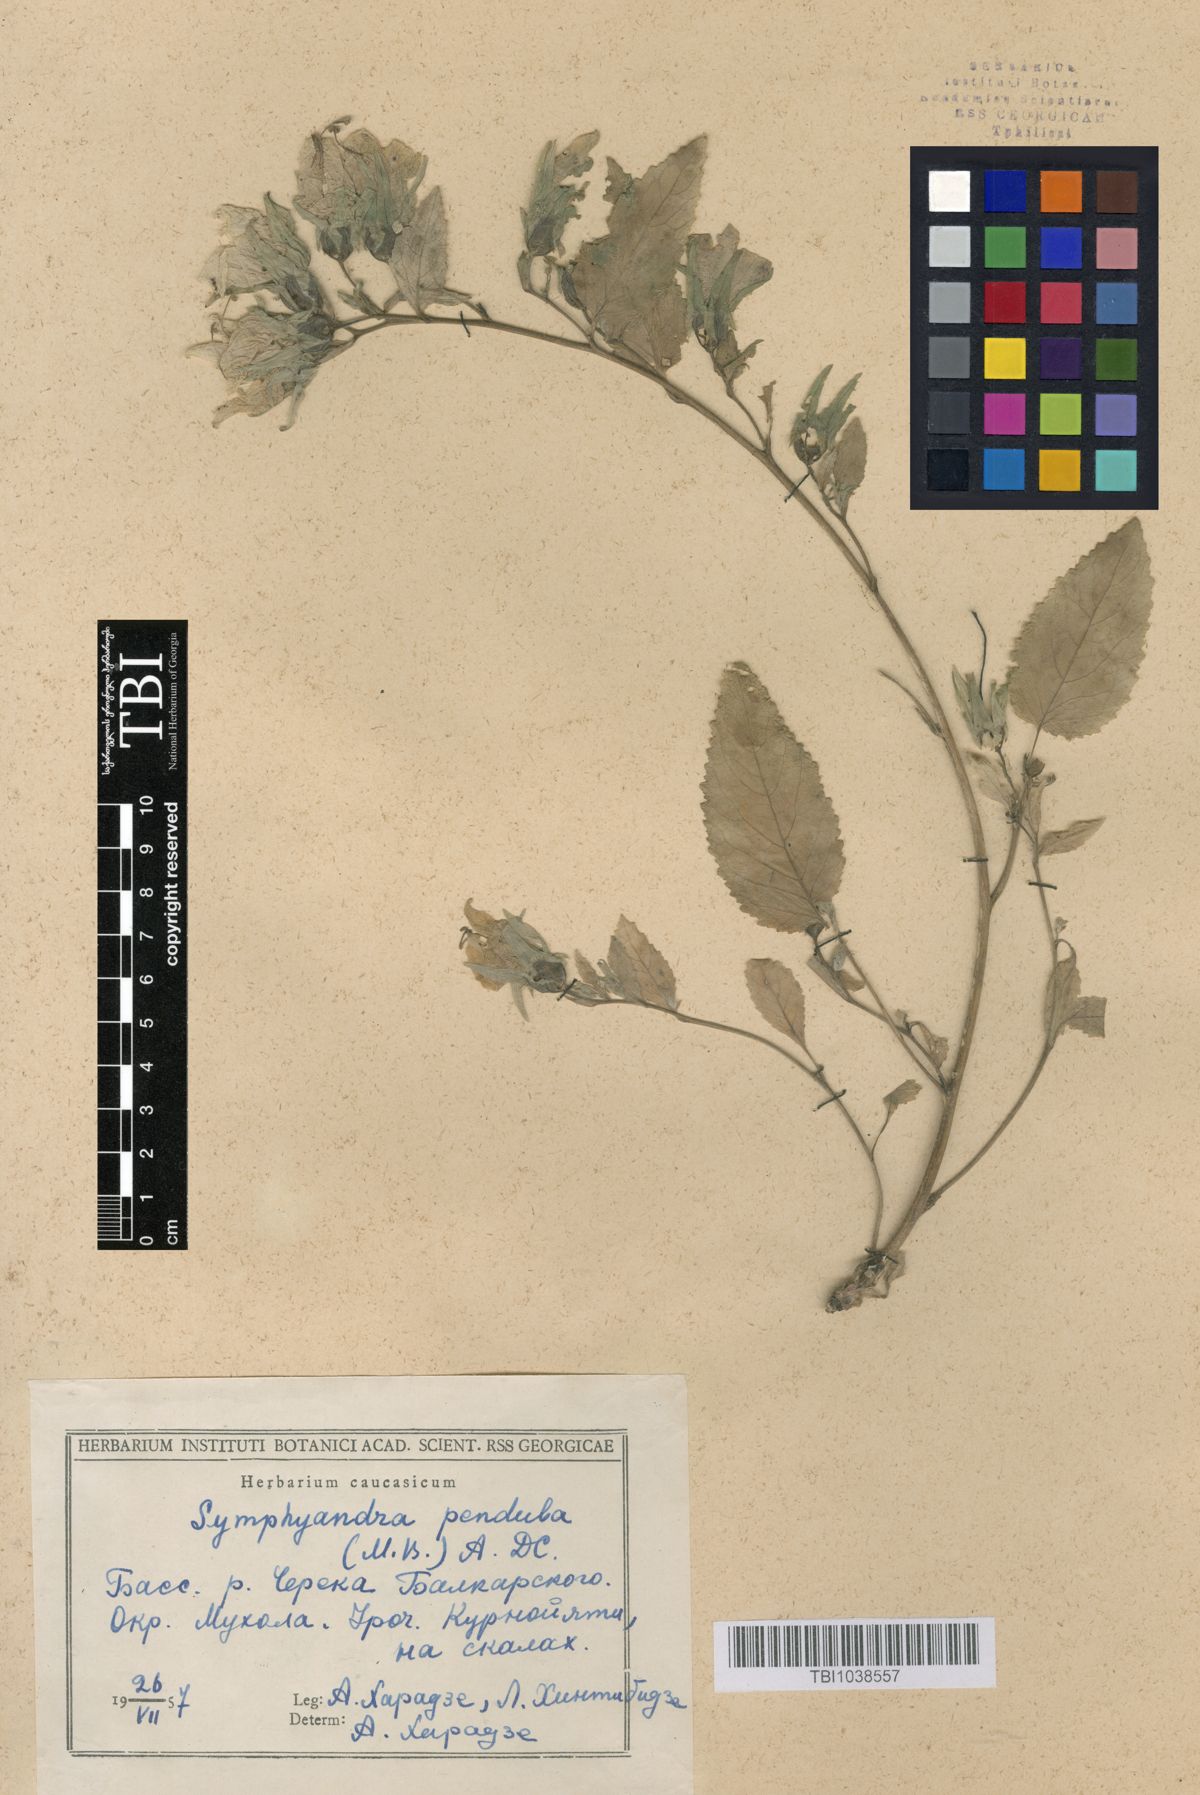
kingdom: Plantae
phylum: Tracheophyta
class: Magnoliopsida
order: Asterales
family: Campanulaceae
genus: Campanula
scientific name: Campanula pendula
